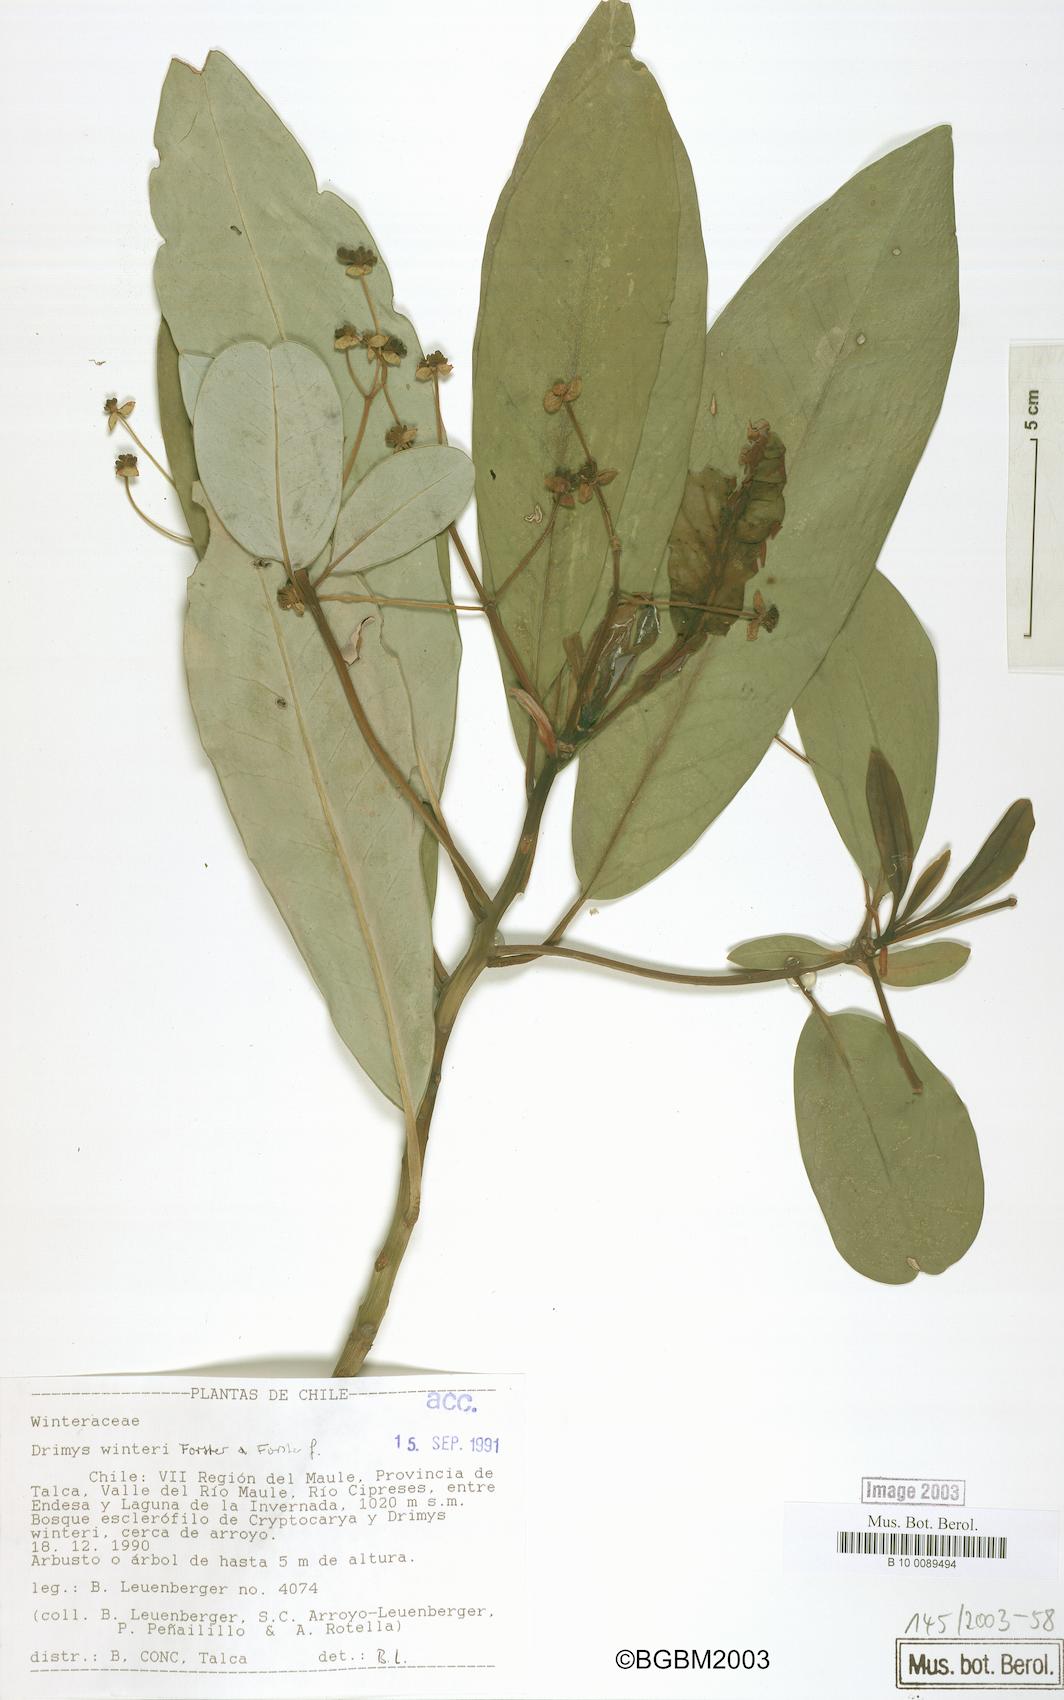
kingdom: Plantae
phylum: Tracheophyta
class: Magnoliopsida
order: Canellales
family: Winteraceae
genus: Drimys
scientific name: Drimys winteri
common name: Winter's-bark
